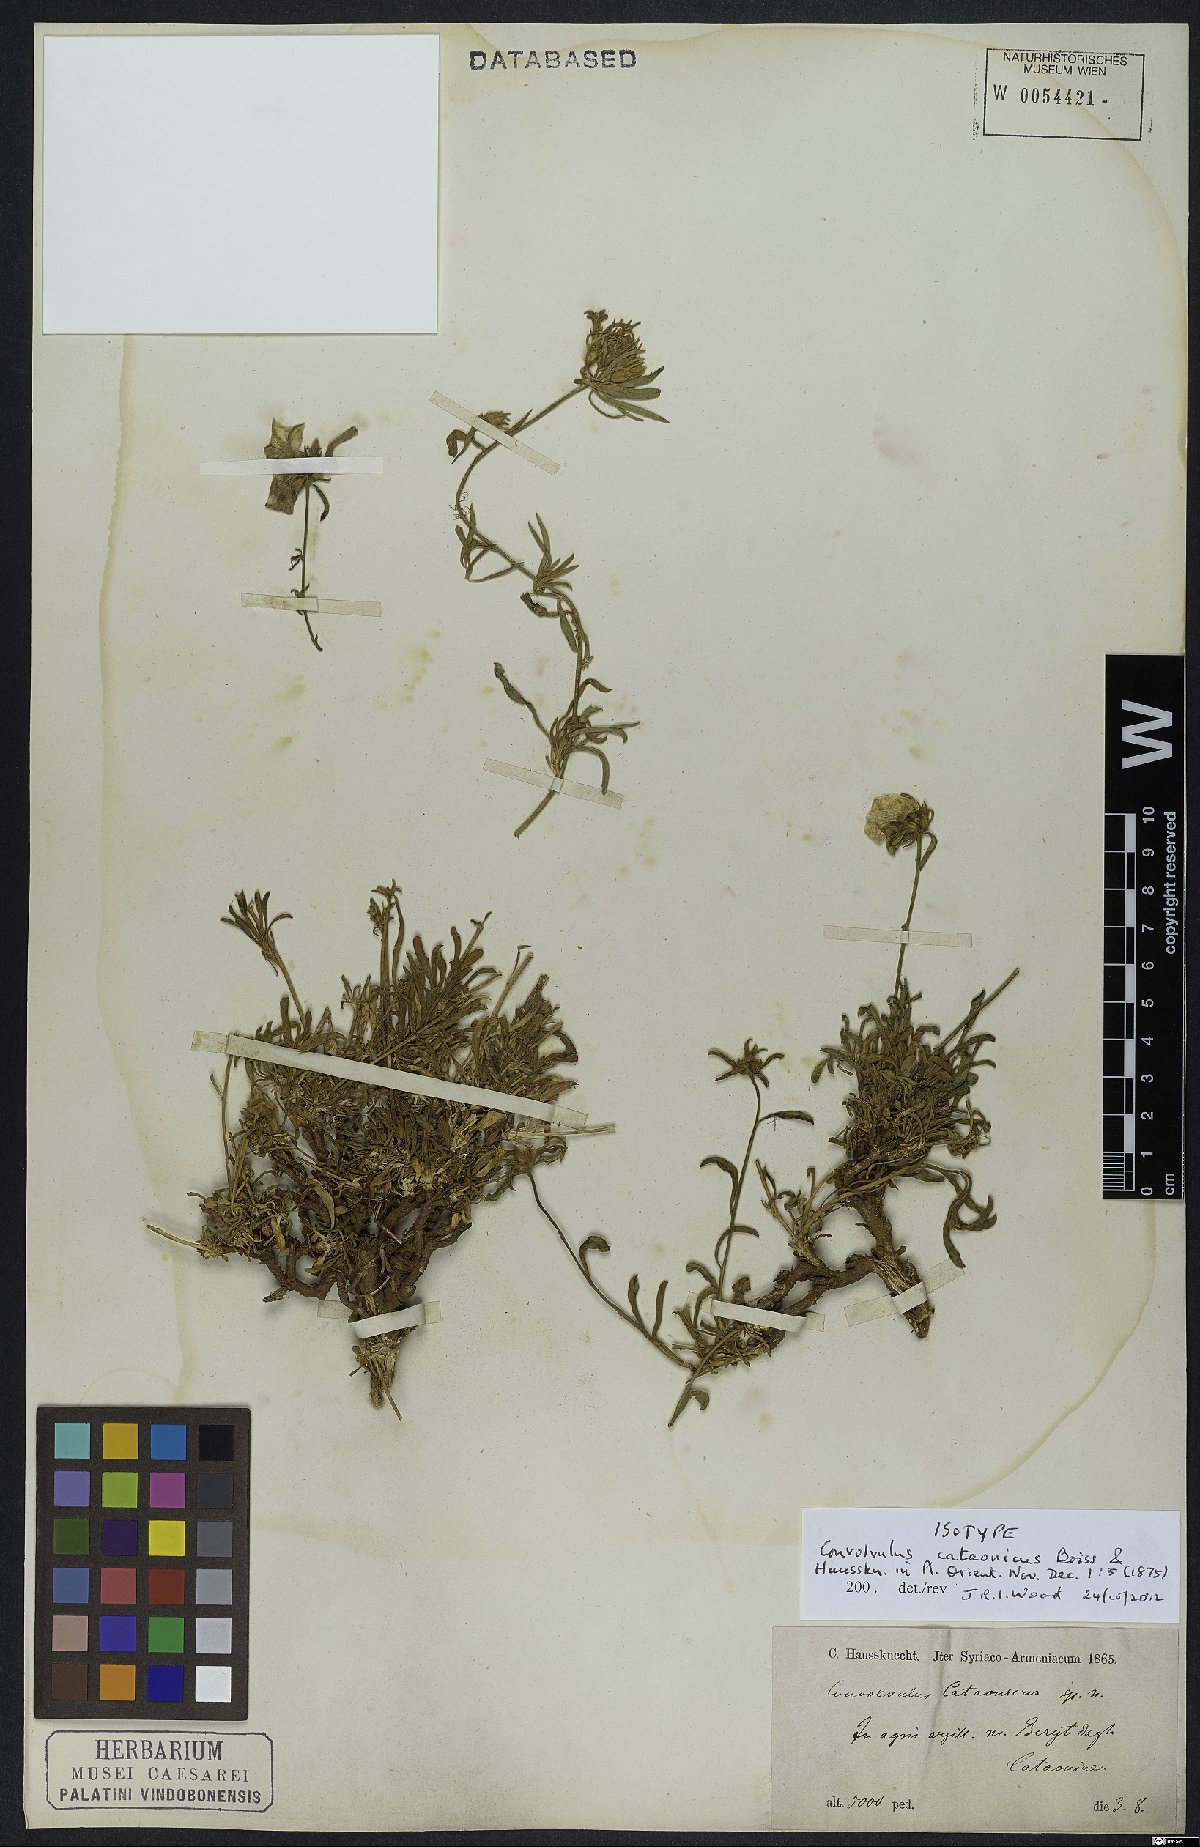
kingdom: Plantae
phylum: Tracheophyta
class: Magnoliopsida
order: Solanales
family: Convolvulaceae
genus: Convolvulus
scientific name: Convolvulus cataonicus
